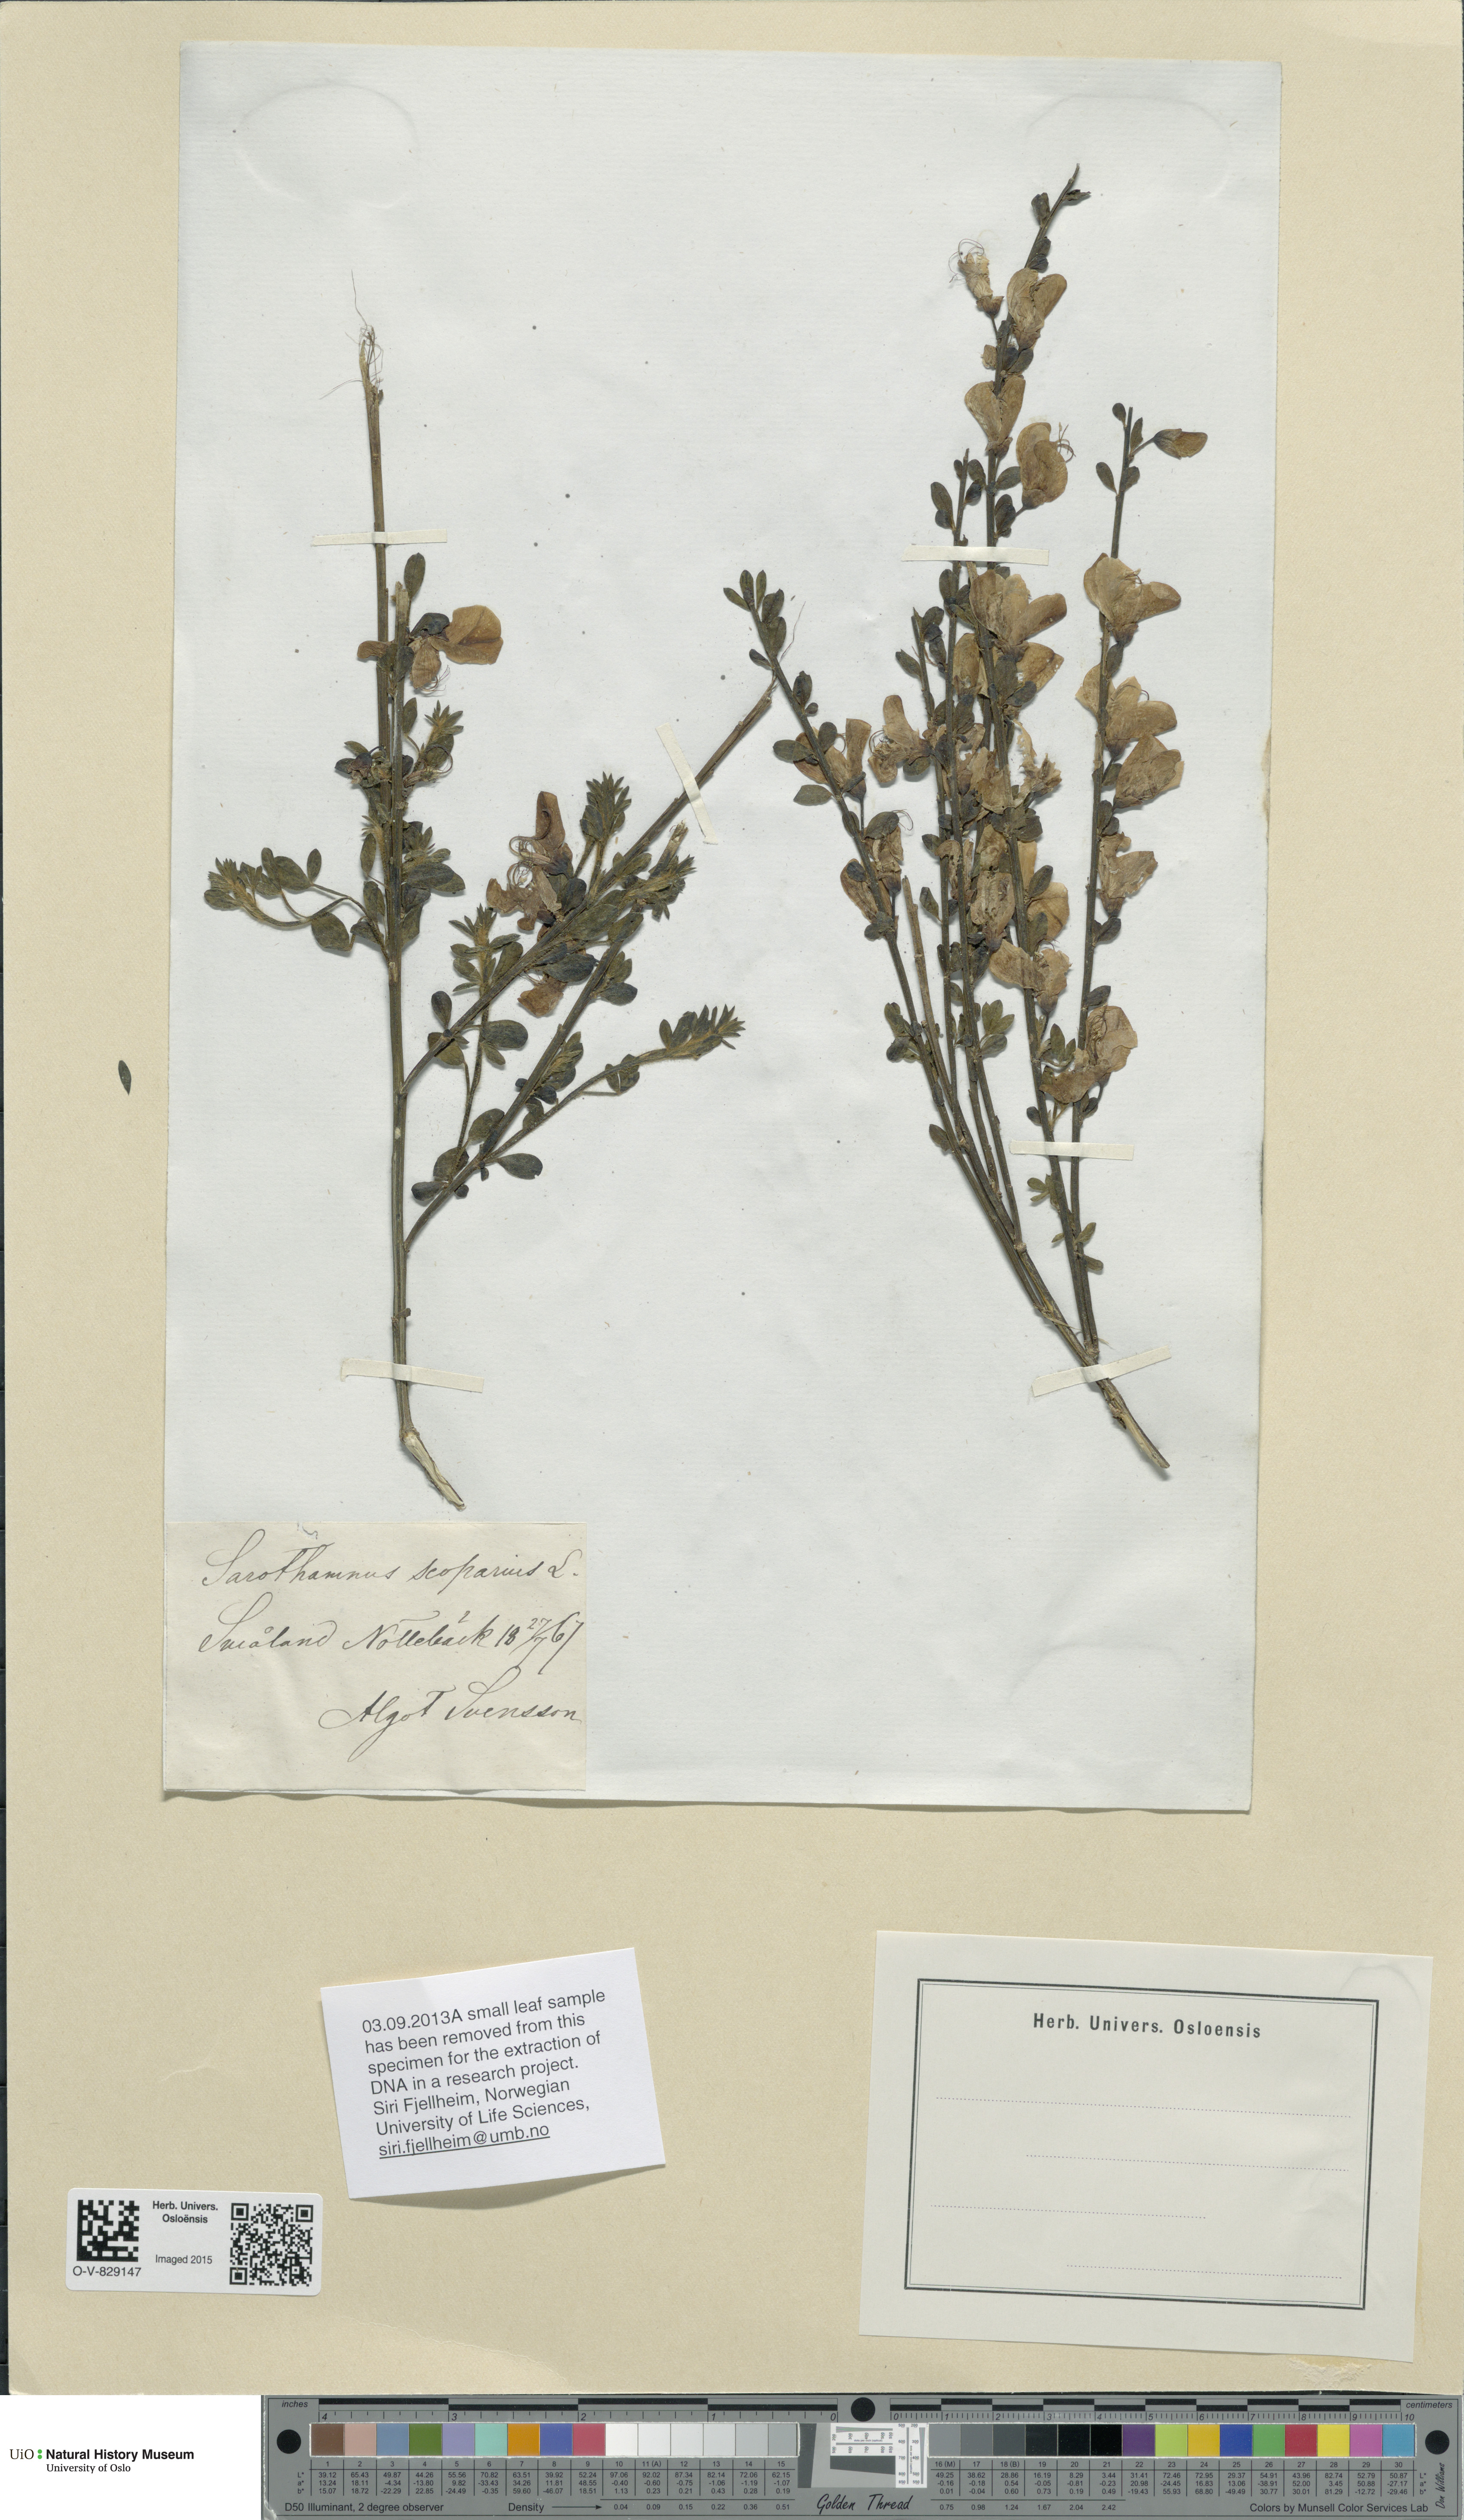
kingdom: Plantae
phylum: Tracheophyta
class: Magnoliopsida
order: Fabales
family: Fabaceae
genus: Cytisus
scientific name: Cytisus scoparius
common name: Scotch broom
